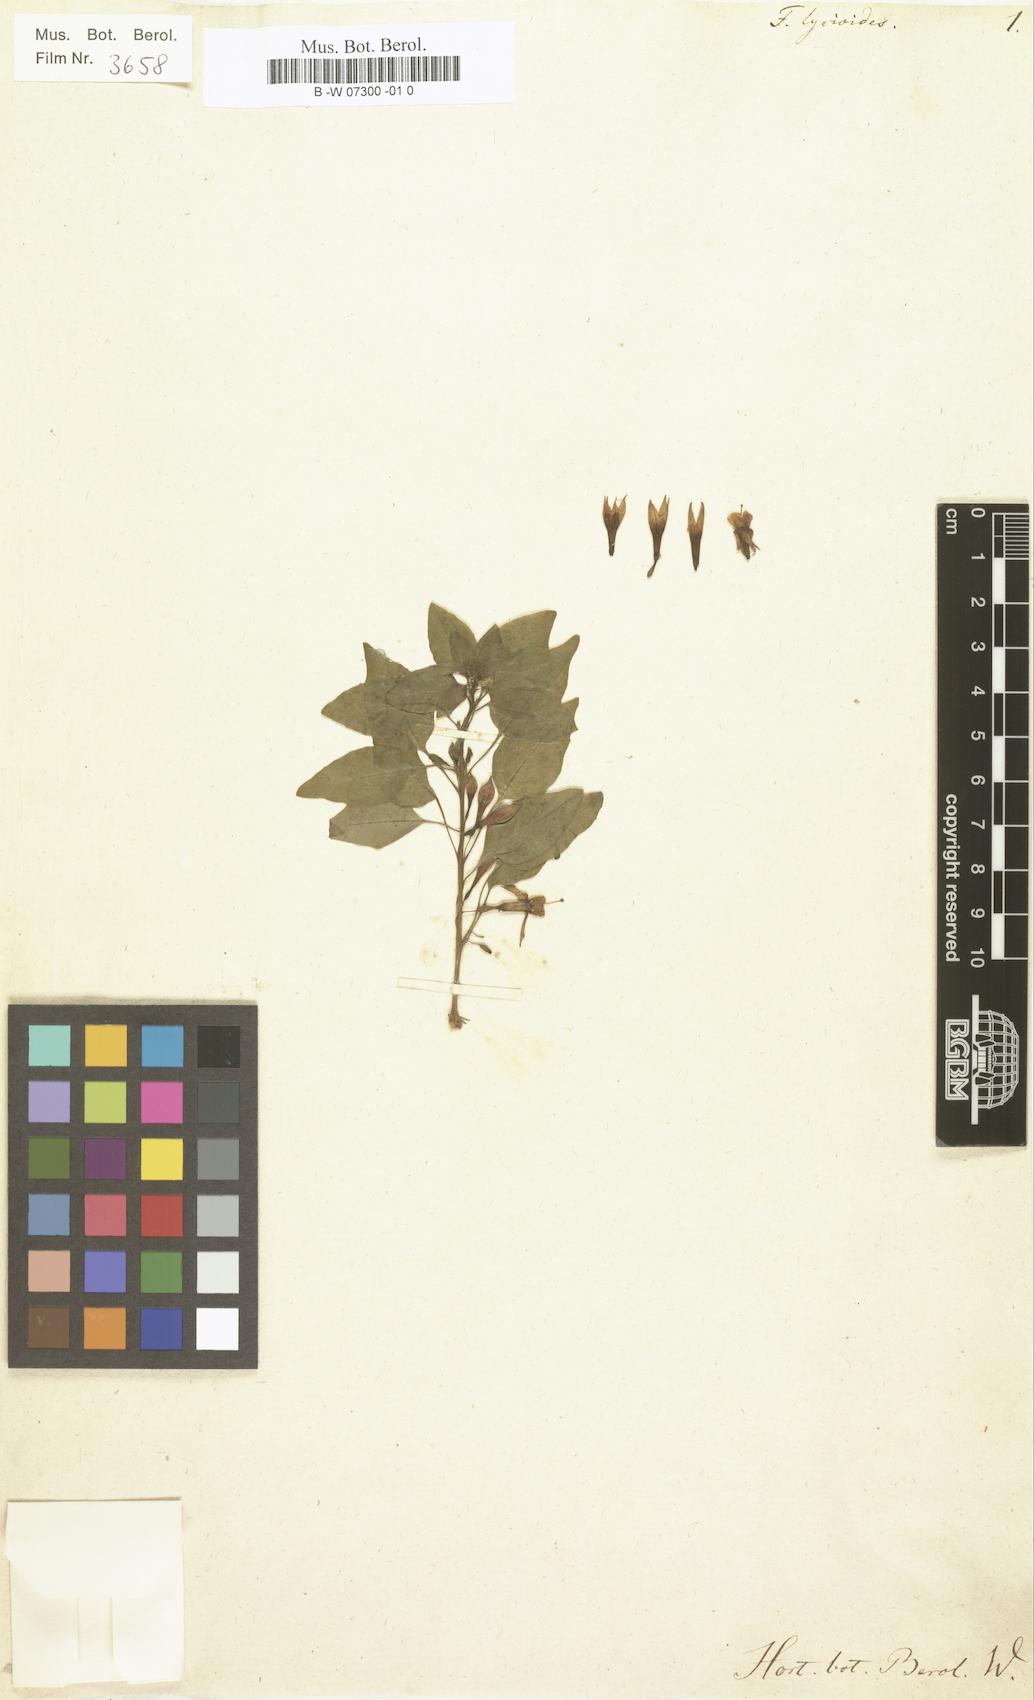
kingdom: Plantae
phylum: Tracheophyta
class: Magnoliopsida
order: Myrtales
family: Onagraceae
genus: Fuchsia
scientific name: Fuchsia lycioides
